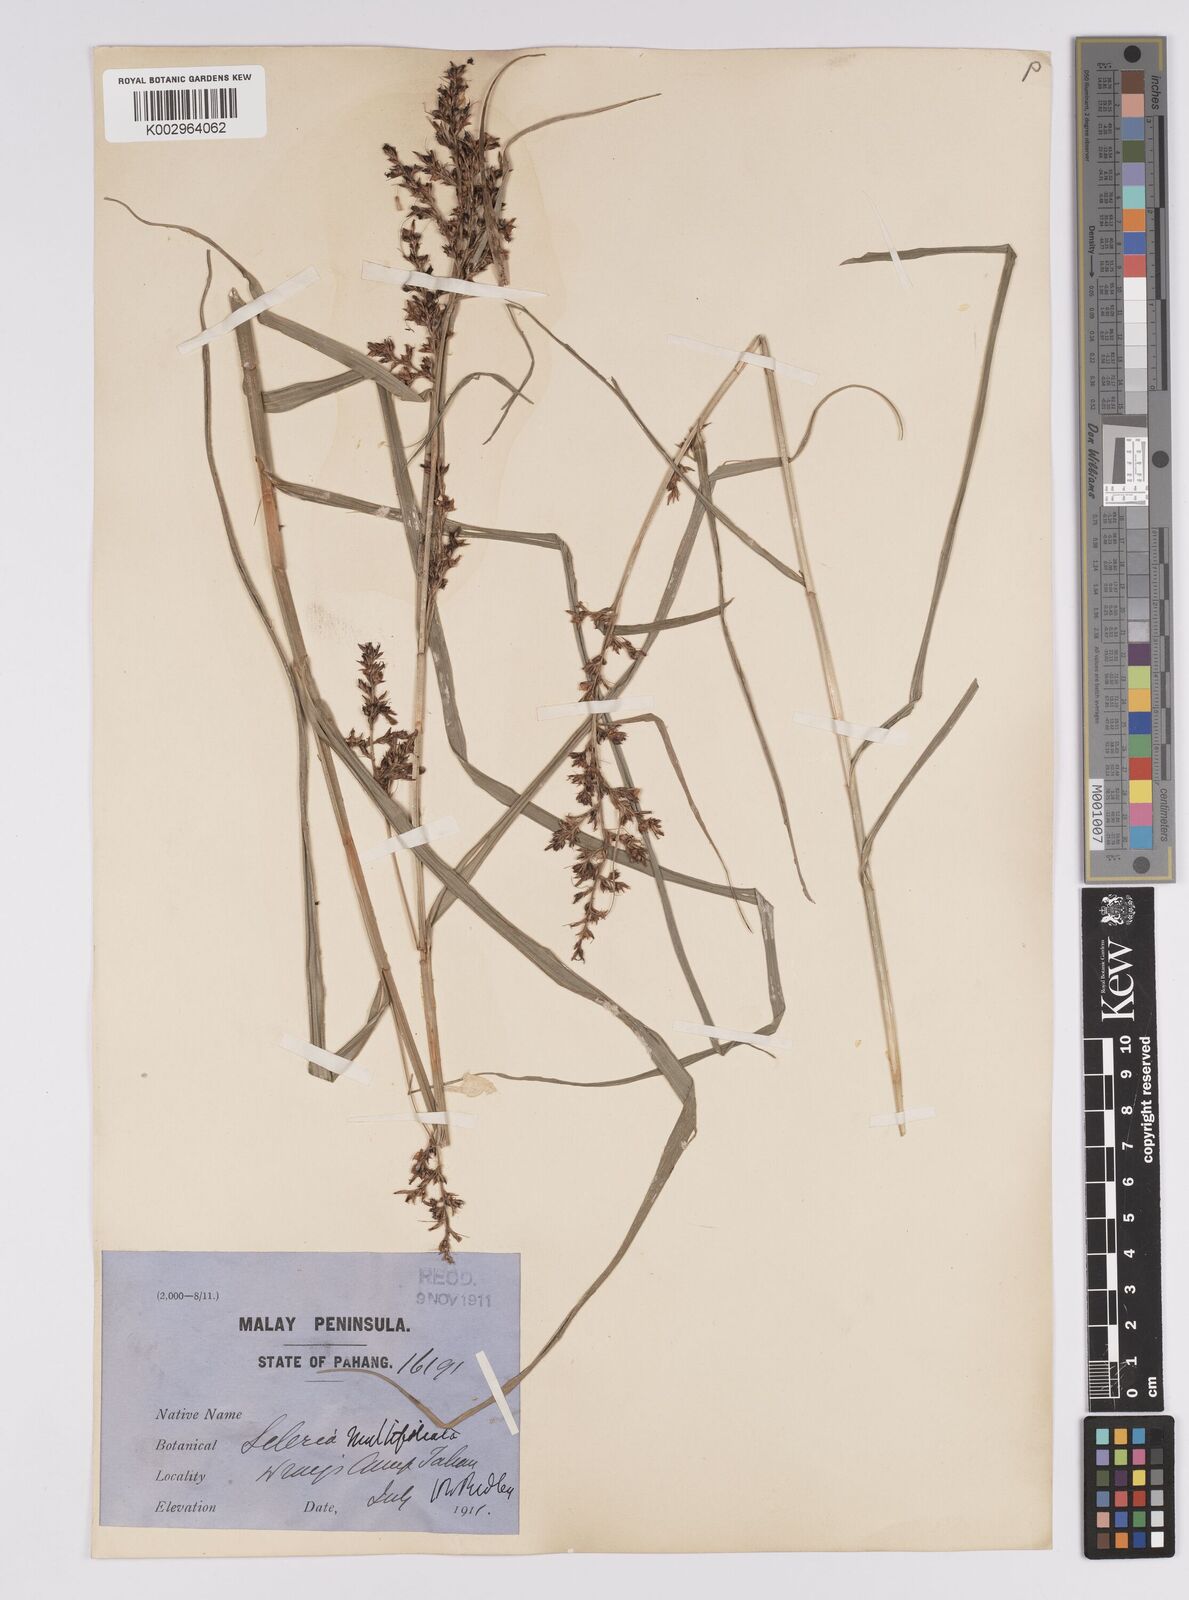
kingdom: Plantae
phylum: Tracheophyta
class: Liliopsida
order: Poales
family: Cyperaceae
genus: Scleria
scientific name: Scleria purpurascens
